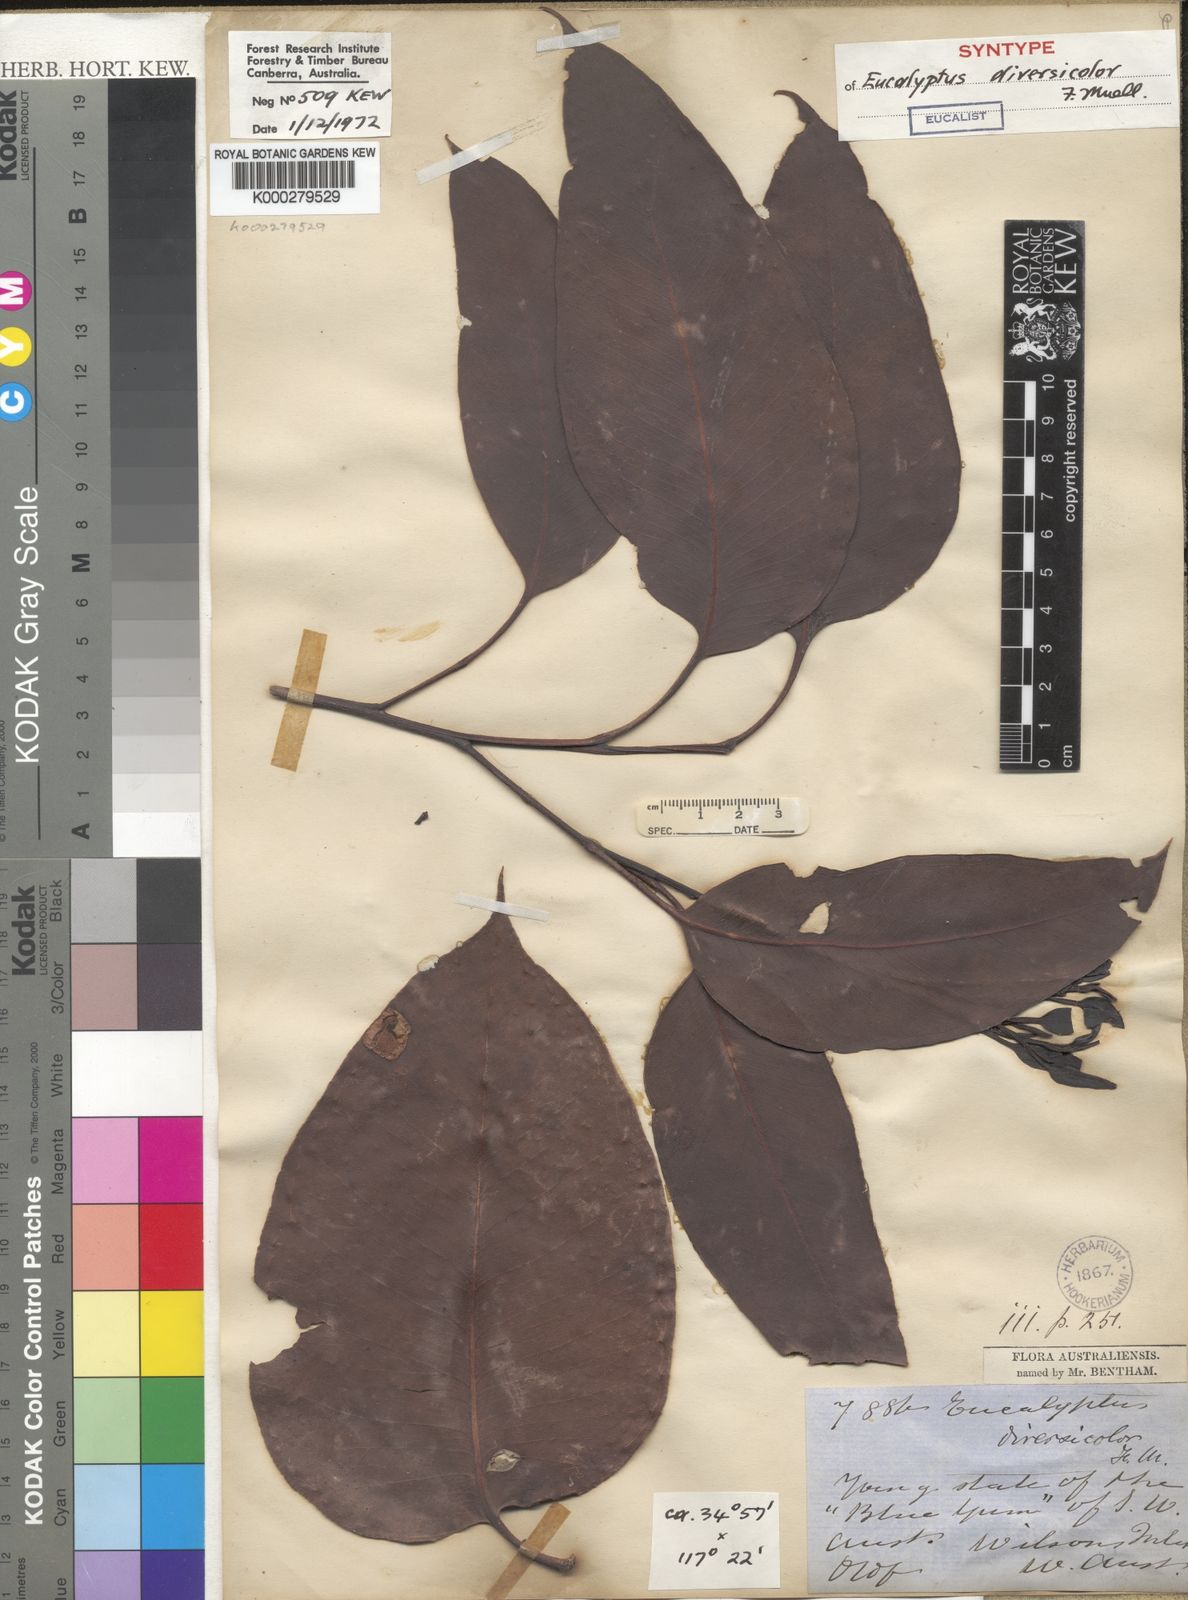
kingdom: Plantae
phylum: Tracheophyta
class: Magnoliopsida
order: Myrtales
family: Myrtaceae
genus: Eucalyptus
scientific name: Eucalyptus diversicolor
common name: Karri
